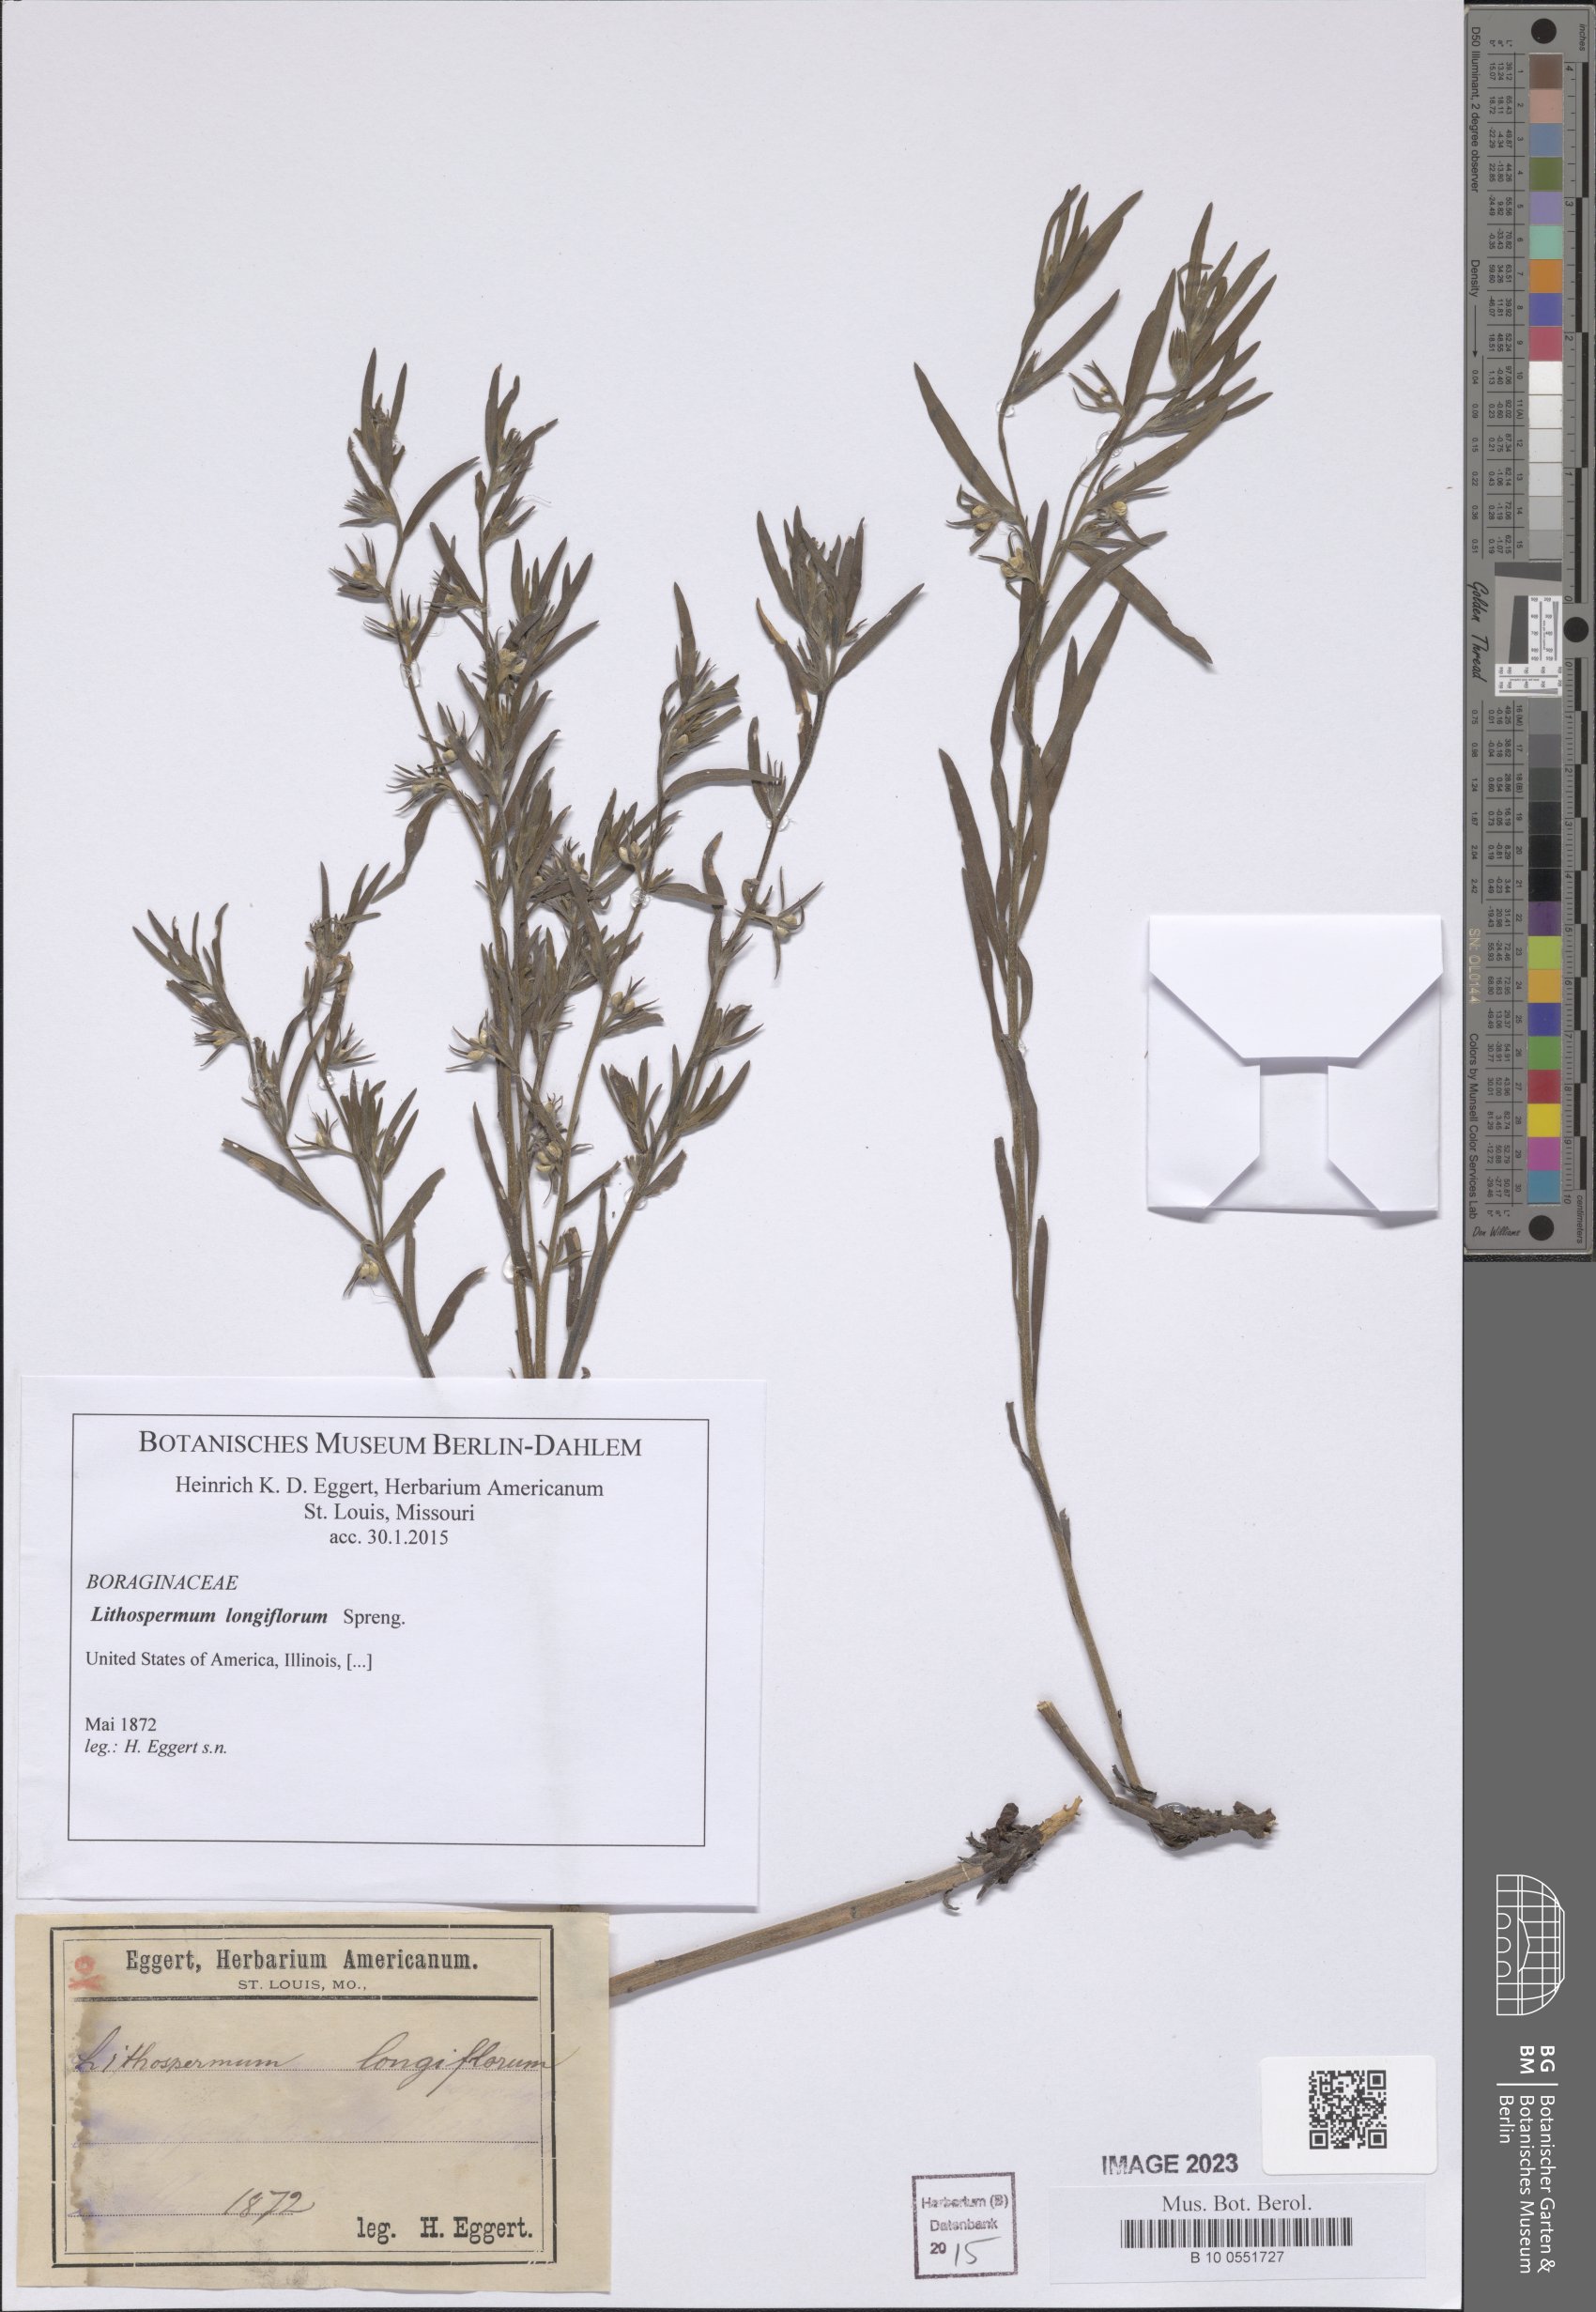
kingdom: Plantae
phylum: Tracheophyta
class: Magnoliopsida
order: Boraginales
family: Boraginaceae
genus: Lithospermum
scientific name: Lithospermum incisum
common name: Fringed gromwell
